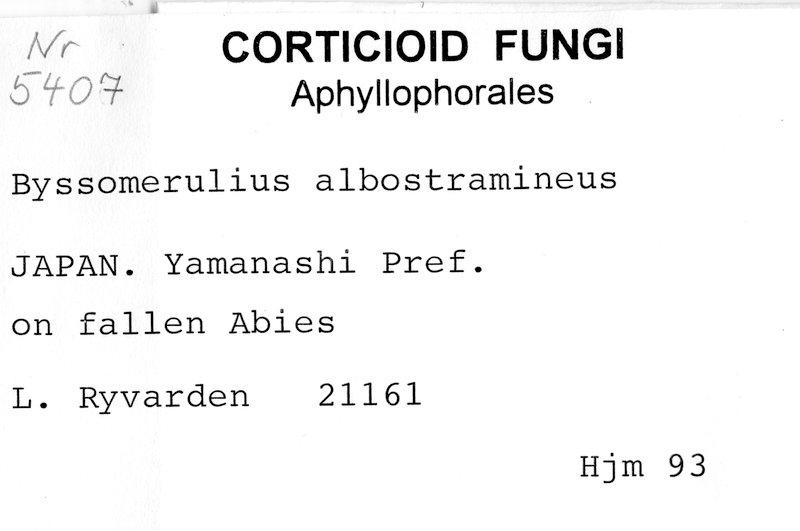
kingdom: Plantae
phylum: Tracheophyta
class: Pinopsida
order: Pinales
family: Pinaceae
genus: Abies
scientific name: Abies
